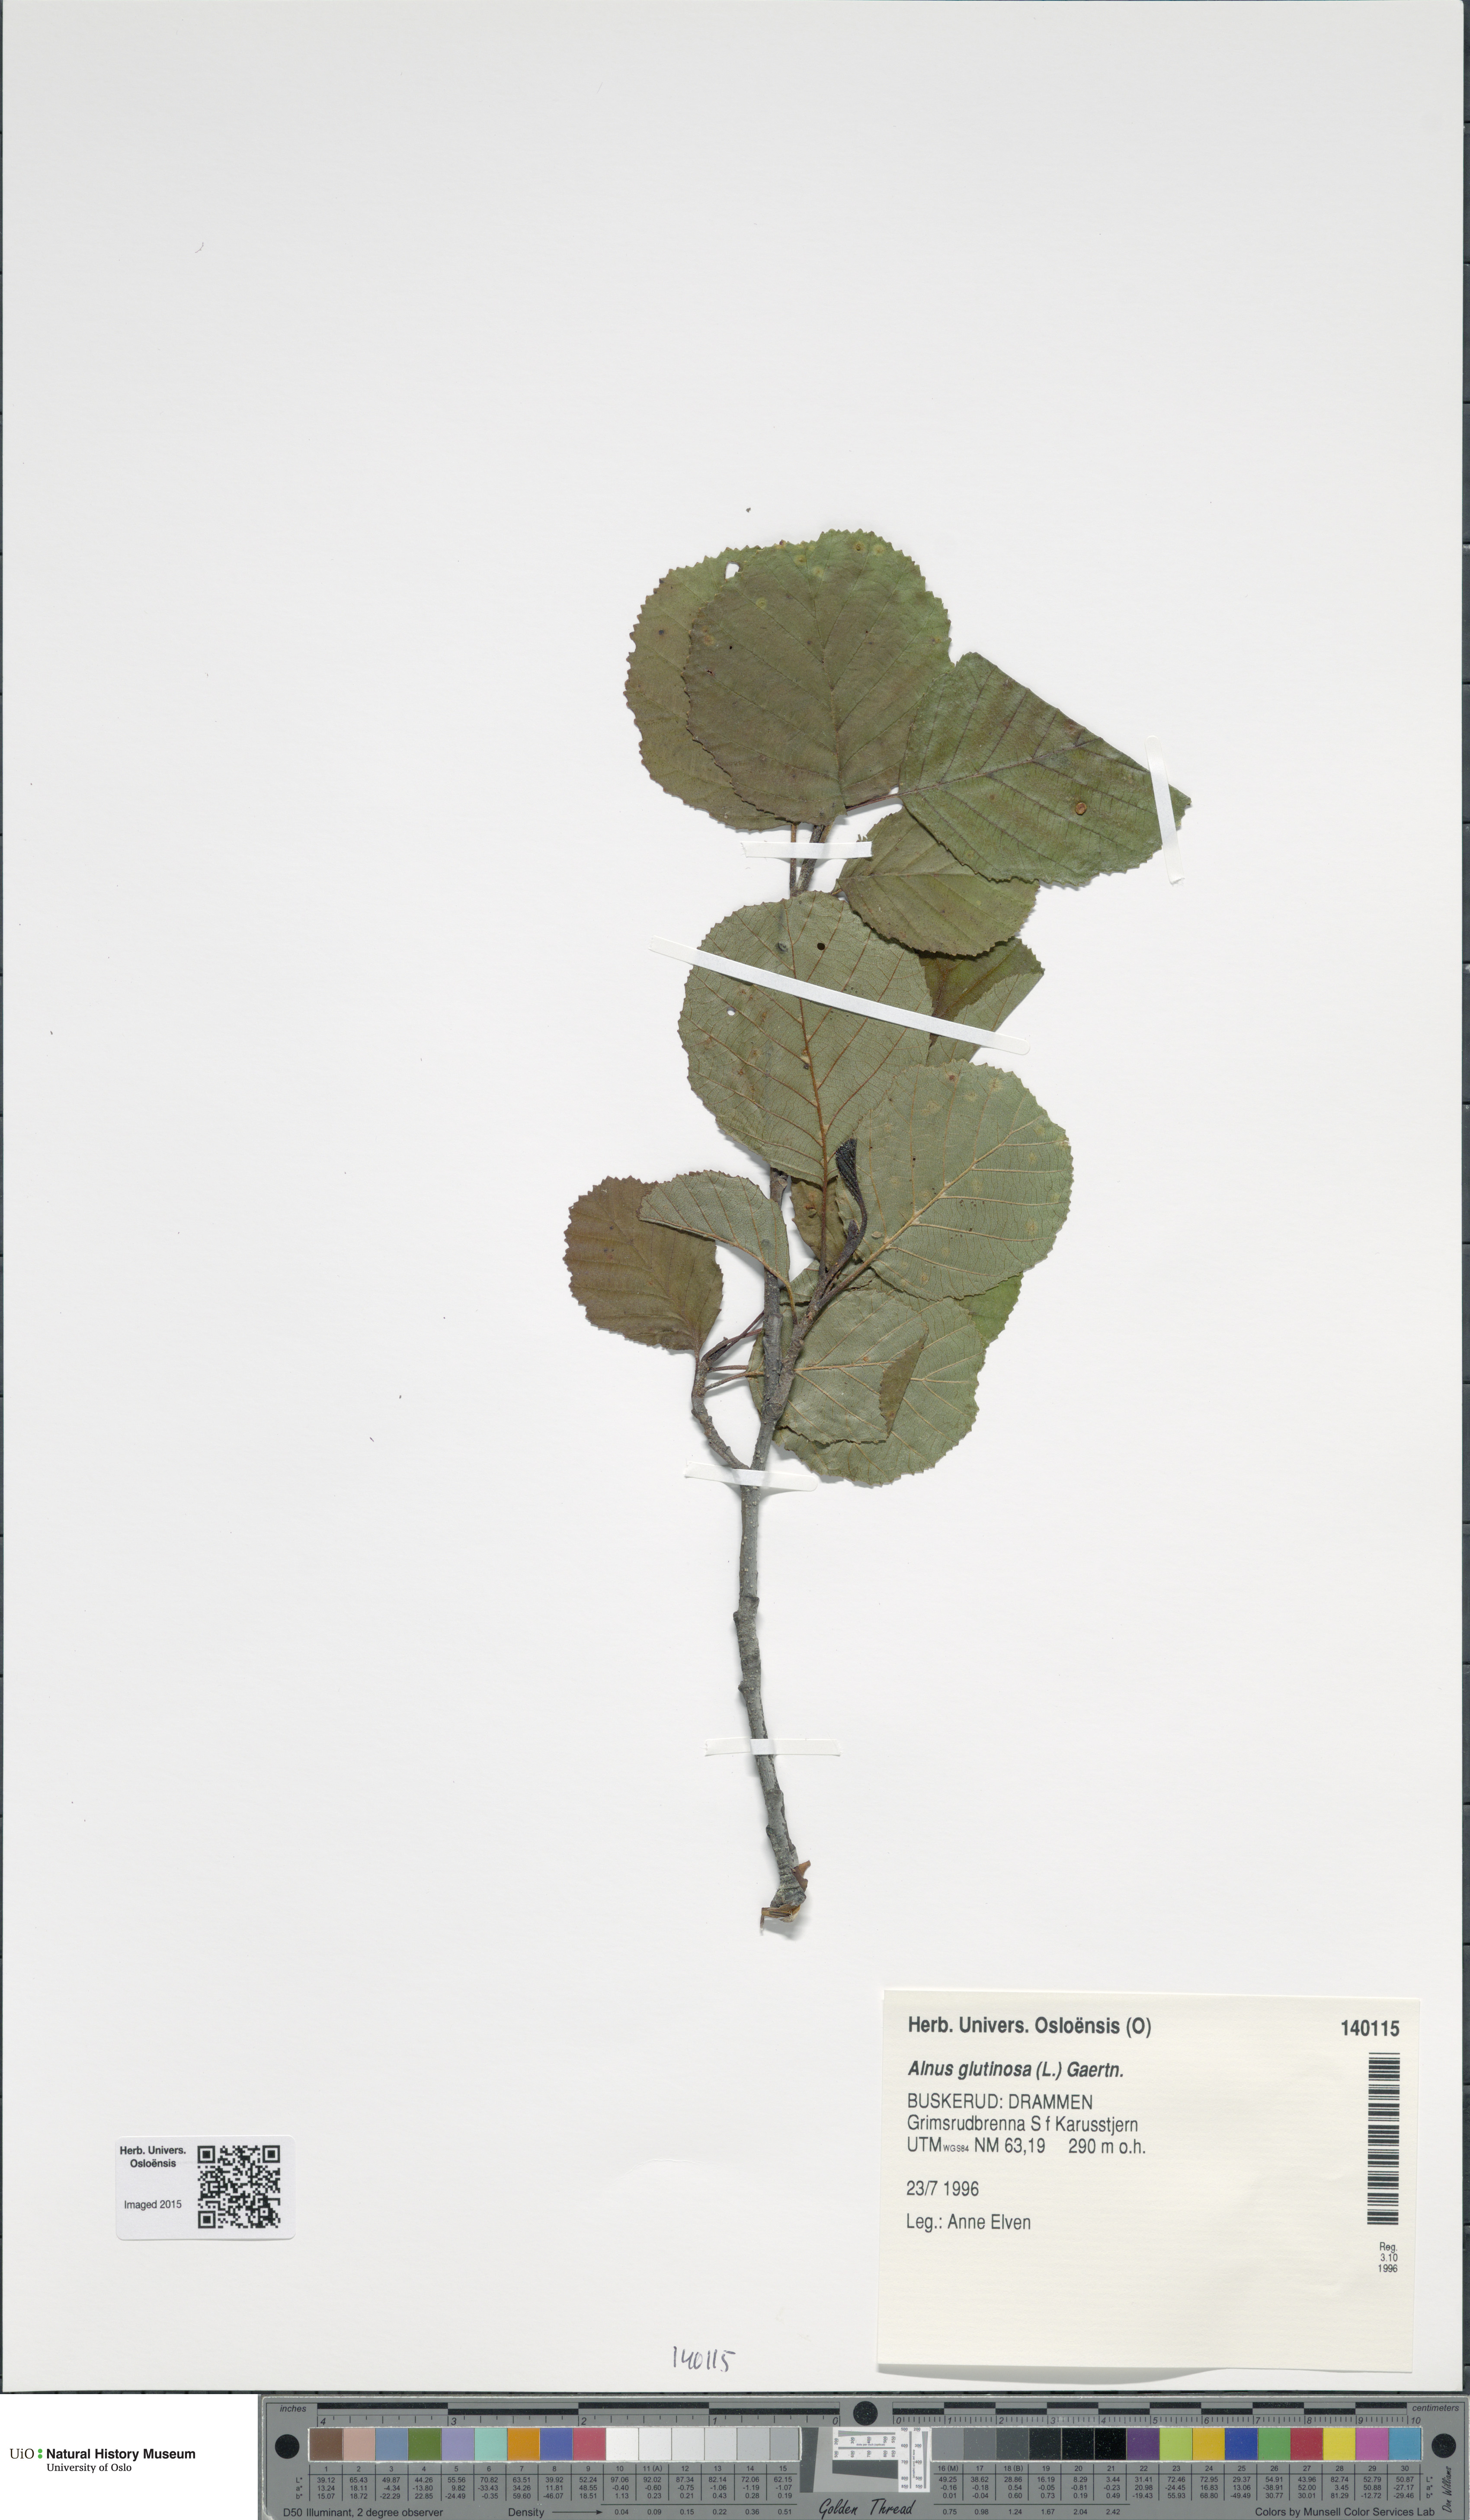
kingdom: Plantae
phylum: Tracheophyta
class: Magnoliopsida
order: Fagales
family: Betulaceae
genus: Alnus
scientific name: Alnus glutinosa
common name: Black alder
